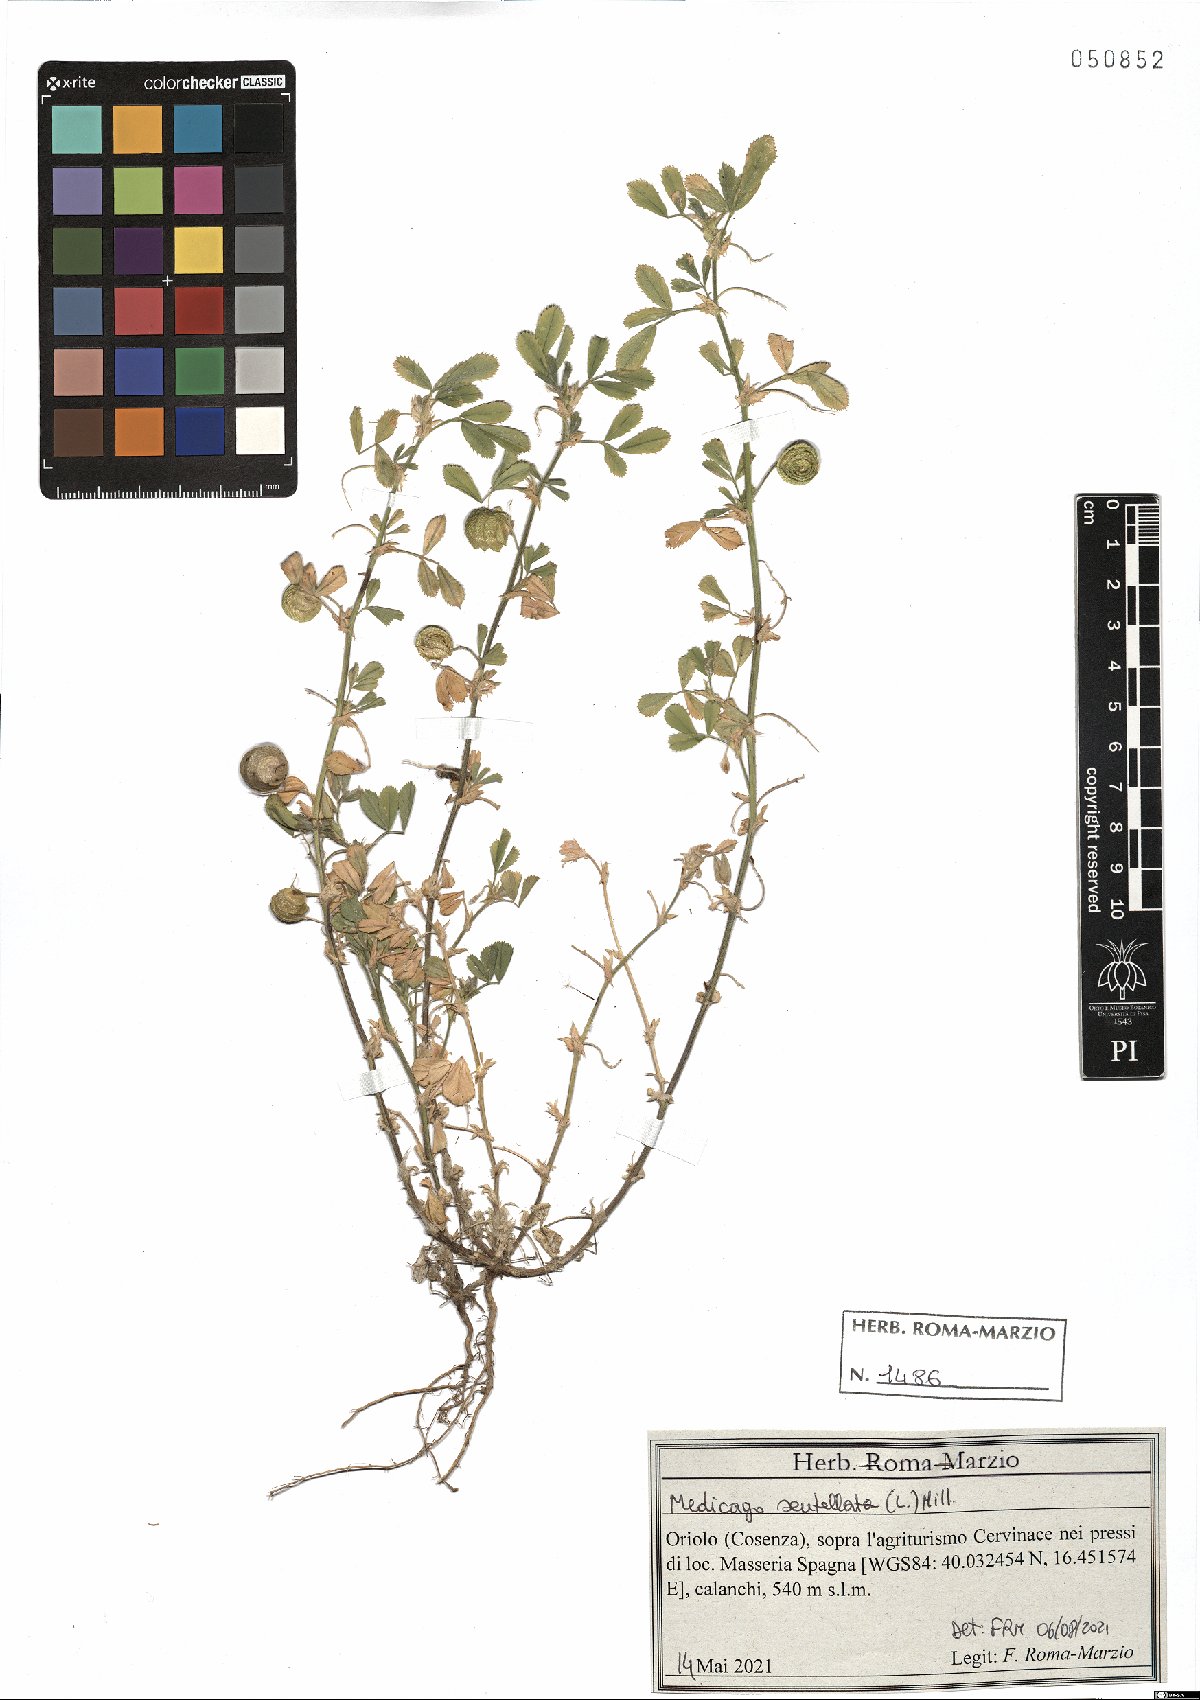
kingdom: Plantae
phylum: Tracheophyta
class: Magnoliopsida
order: Fabales
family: Fabaceae
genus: Medicago
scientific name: Medicago scutellata
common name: Snail medick
